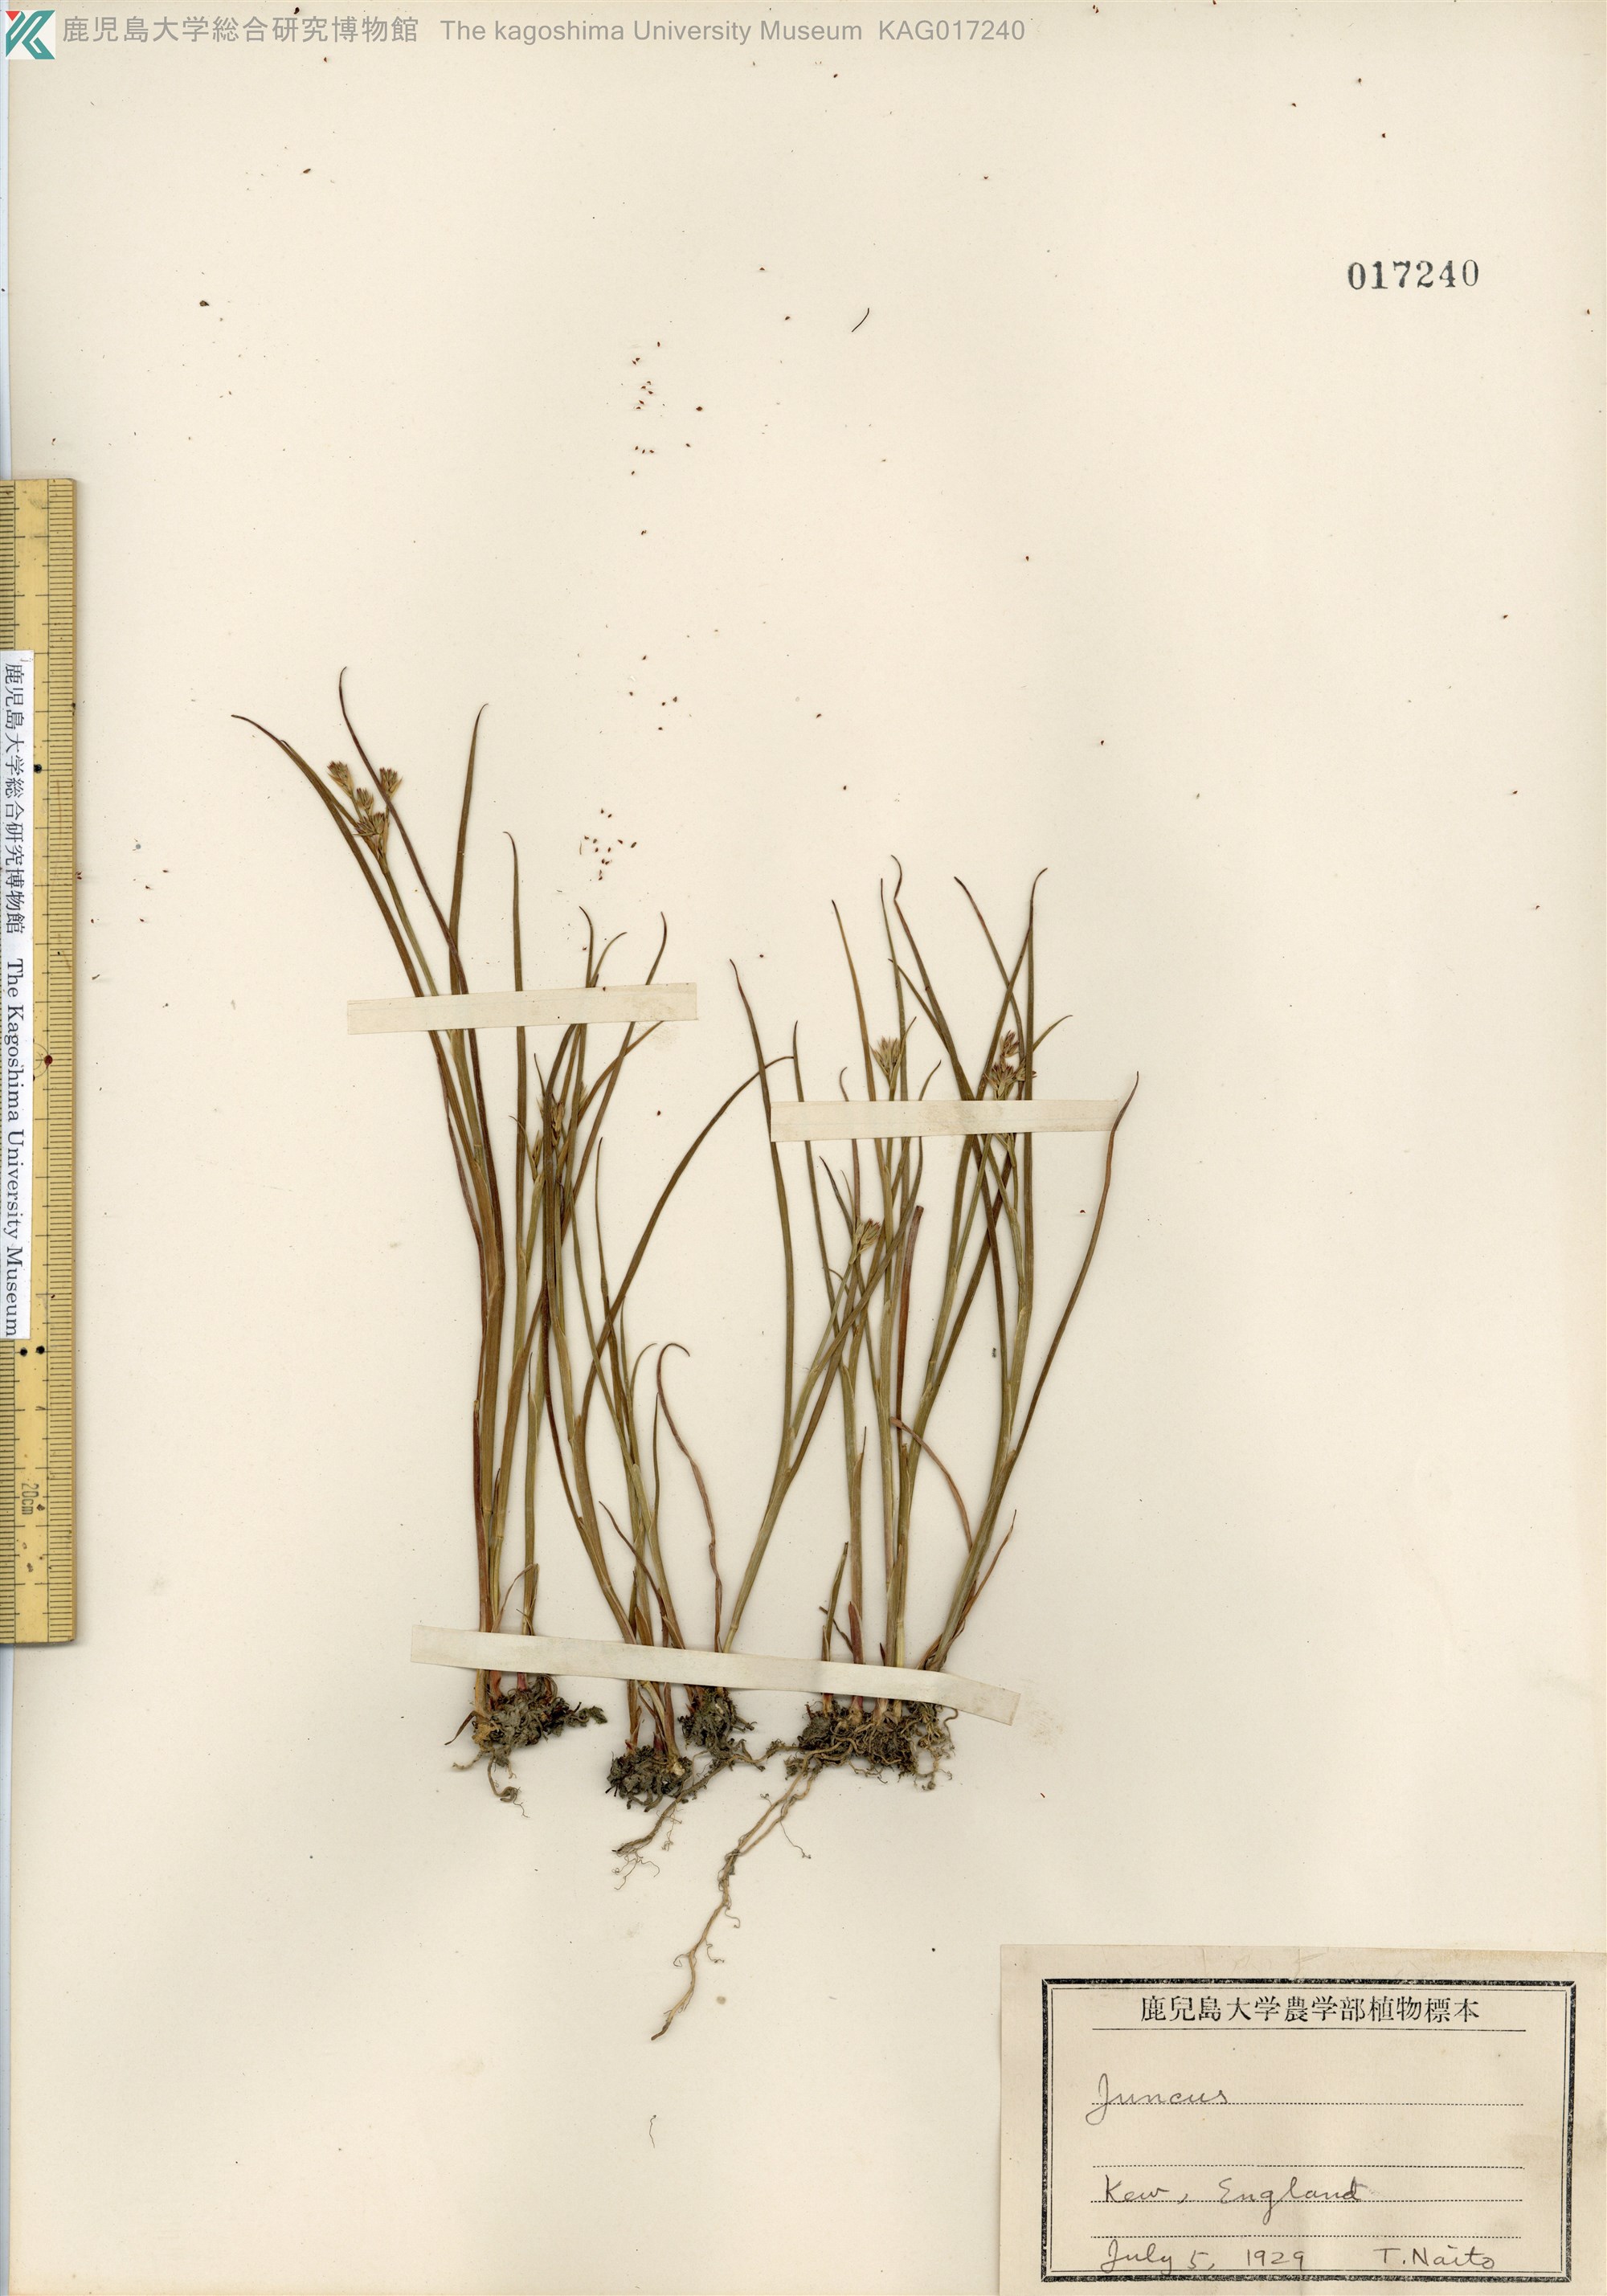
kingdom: Plantae
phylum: Tracheophyta
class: Liliopsida
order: Poales
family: Juncaceae
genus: Juncus
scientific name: Juncus castaneus
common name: Chestnut rush
